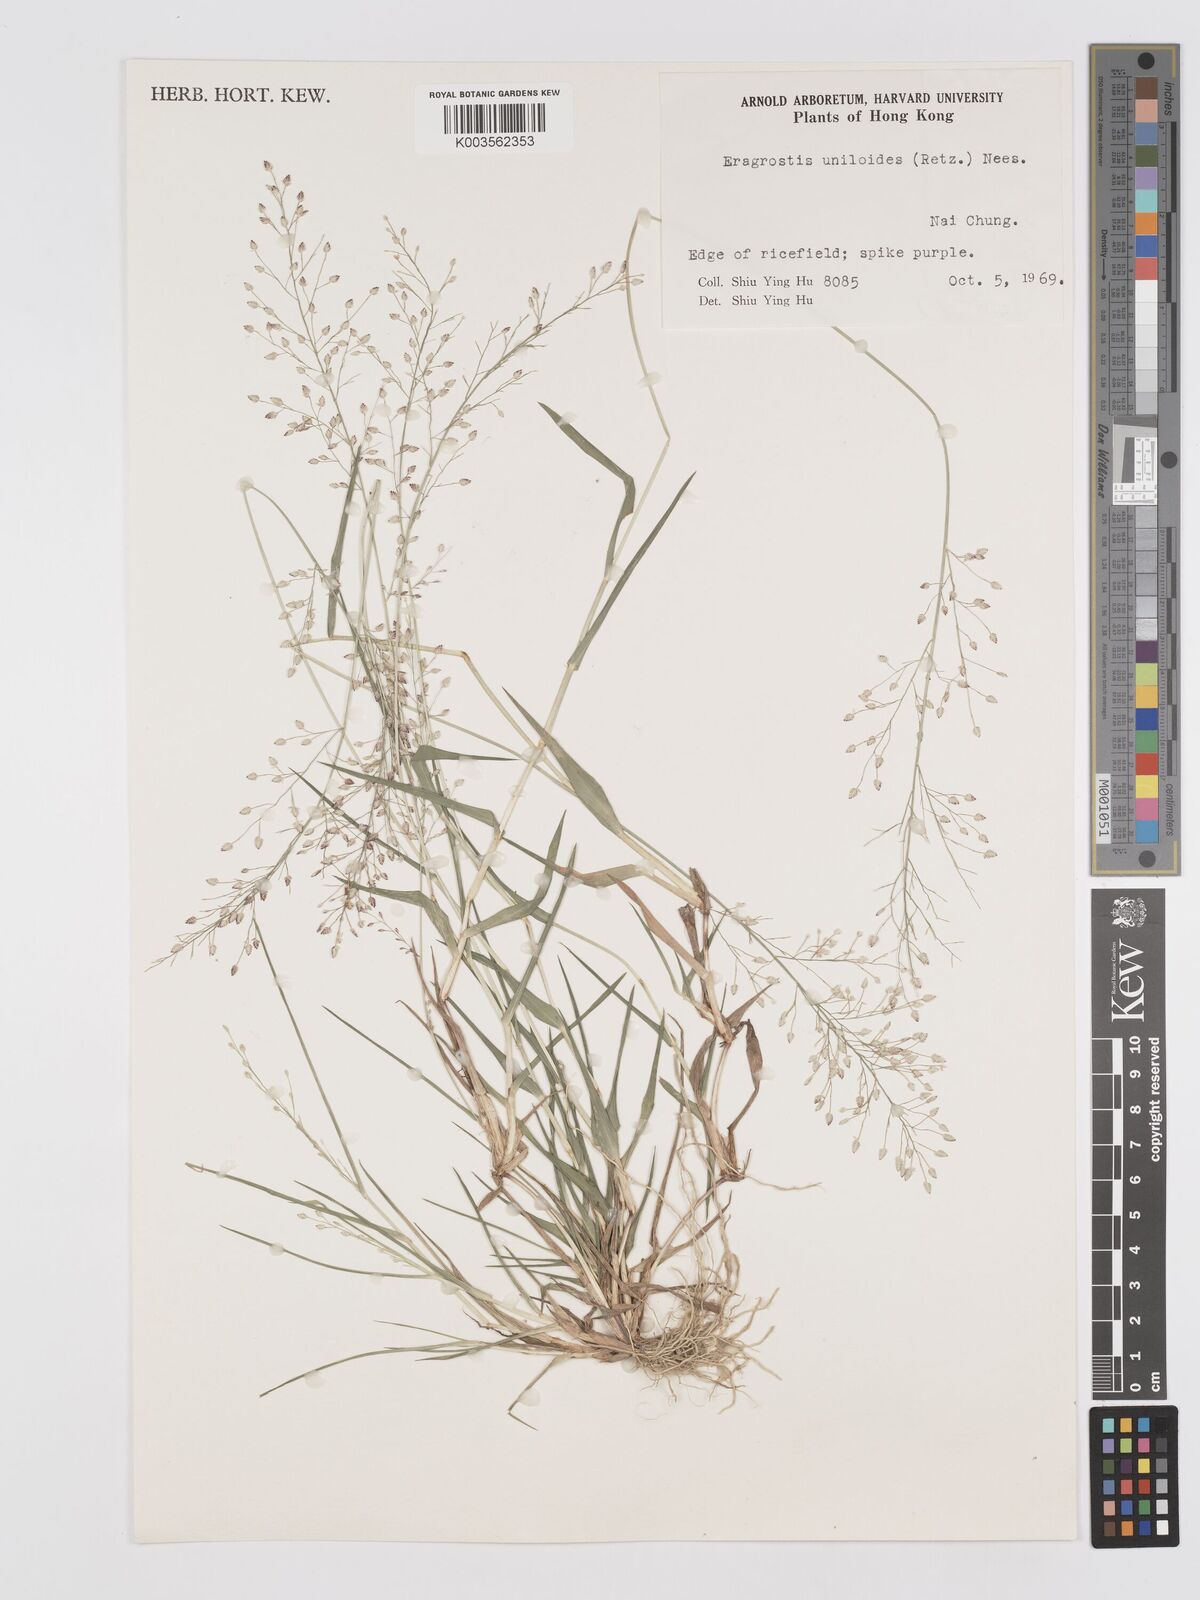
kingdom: Plantae
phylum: Tracheophyta
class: Liliopsida
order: Poales
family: Poaceae
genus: Eragrostis
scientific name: Eragrostis unioloides
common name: Chinese lovegrass
